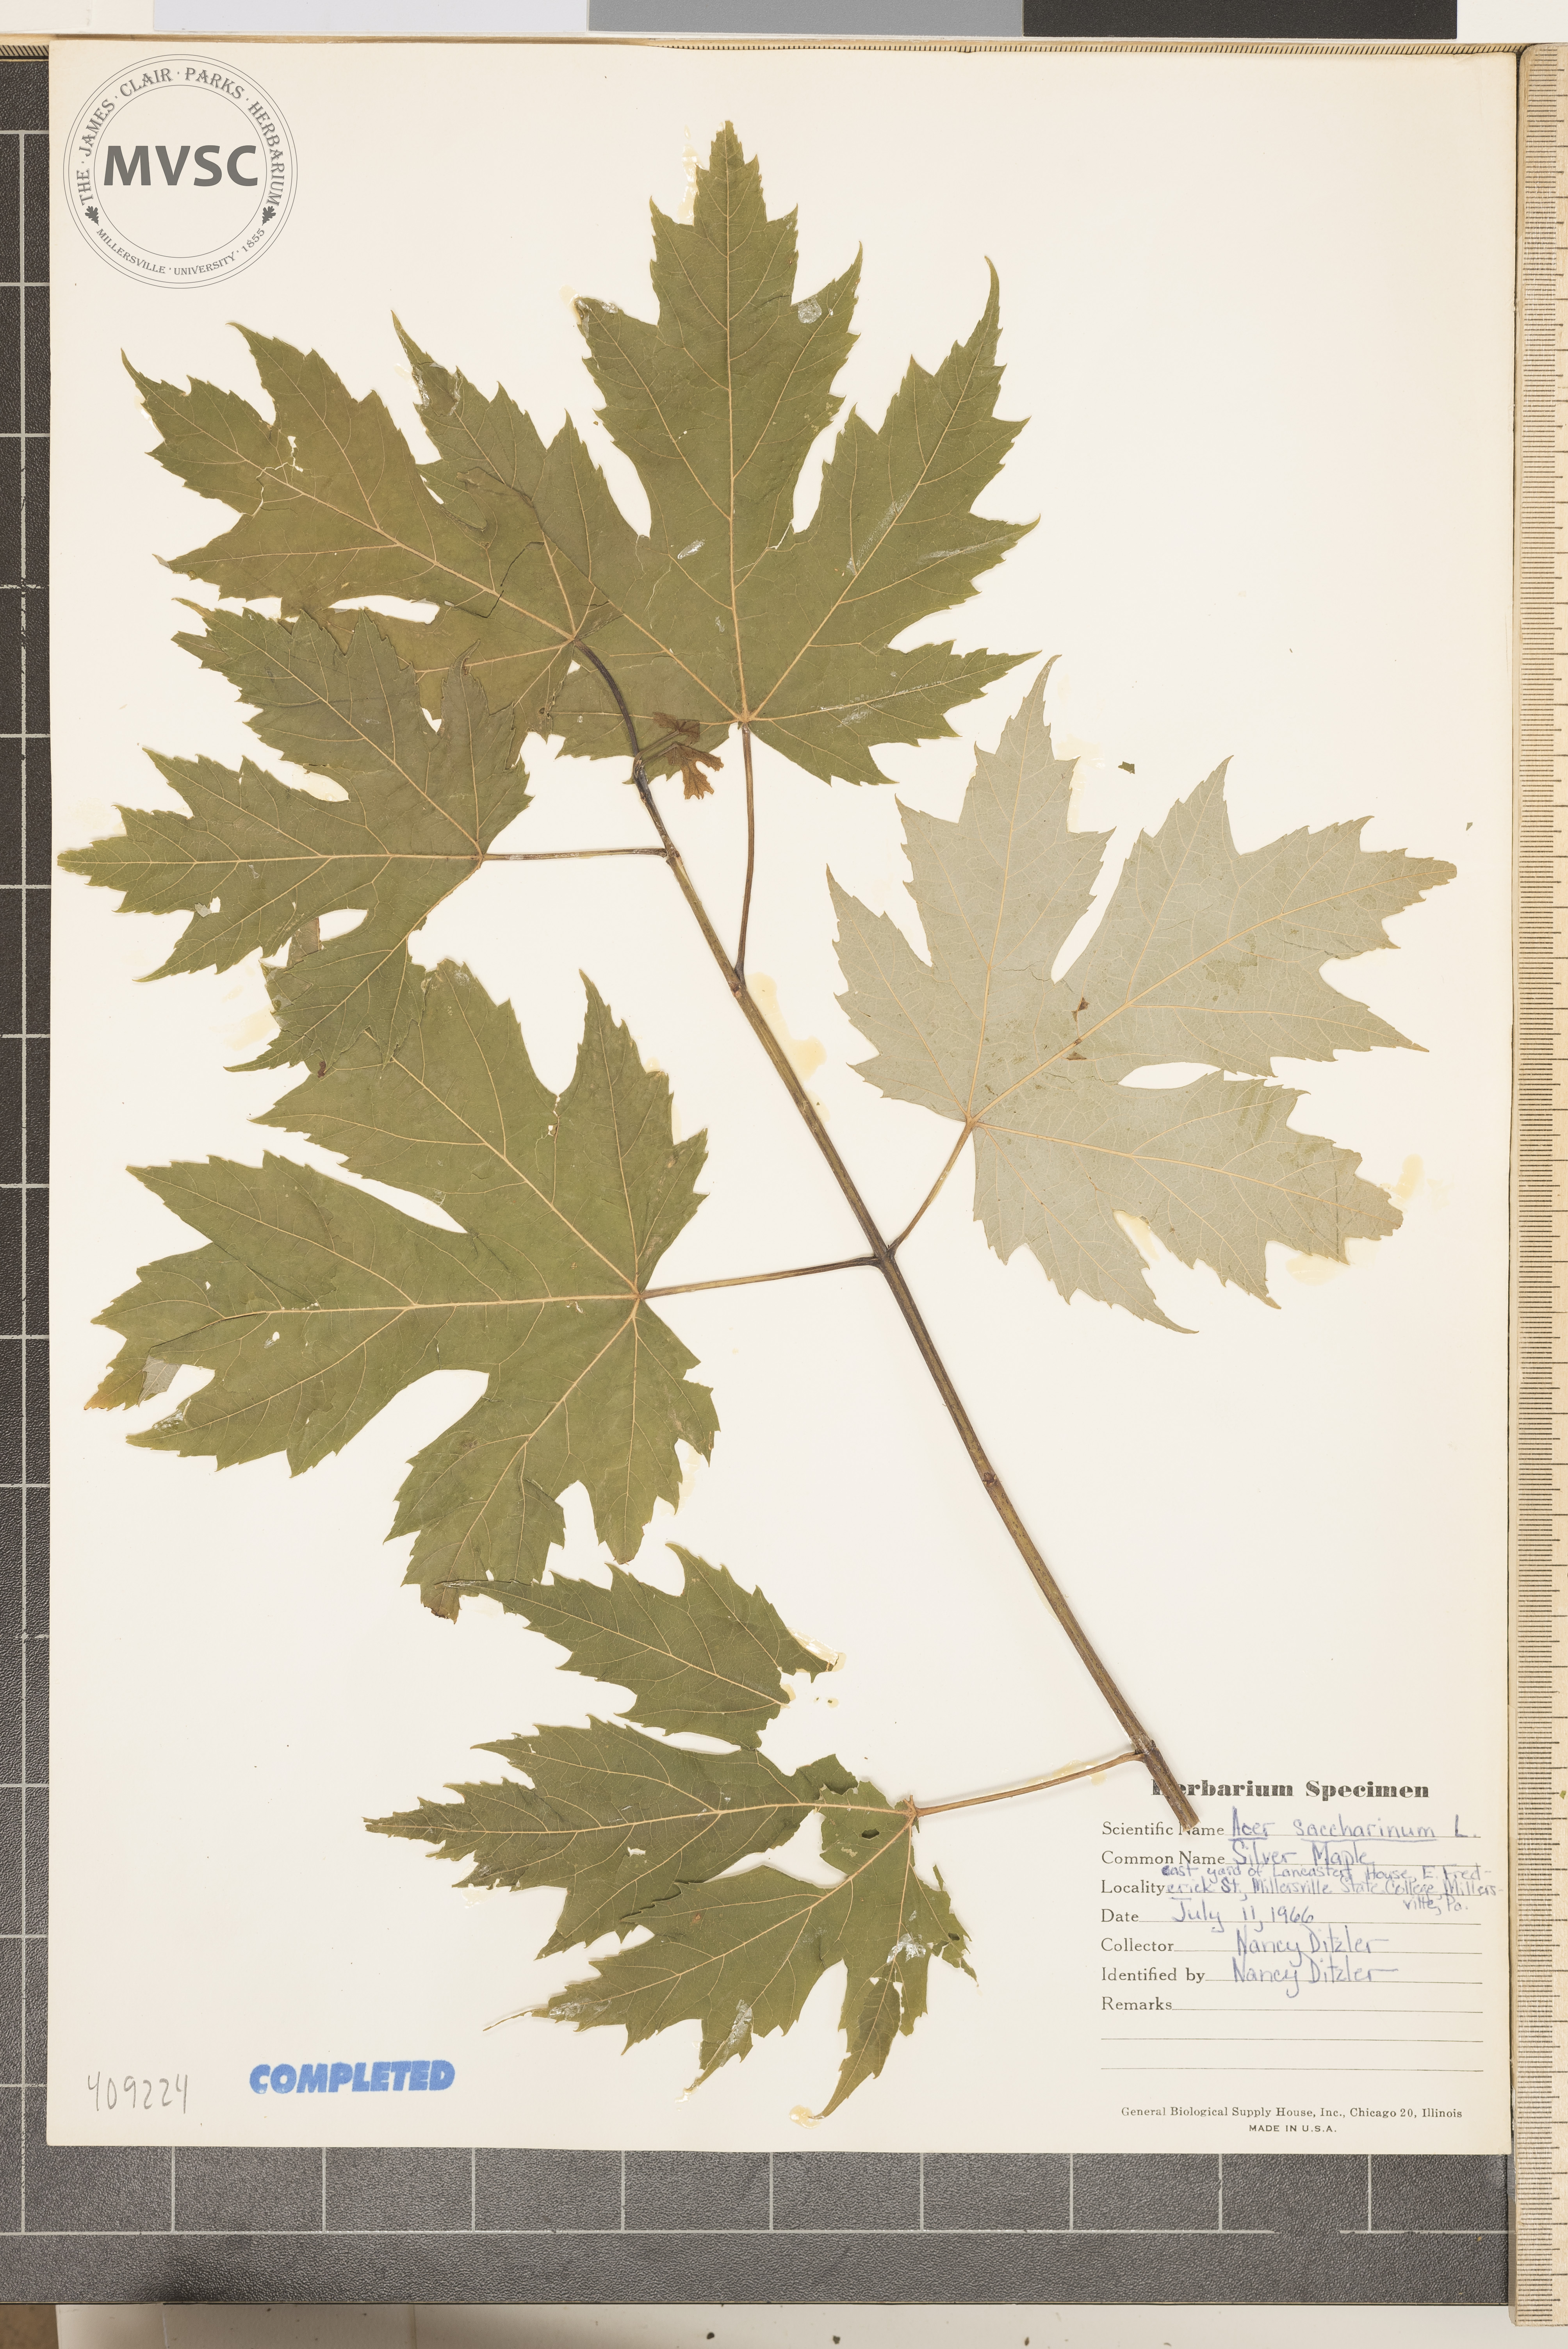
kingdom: Plantae
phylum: Tracheophyta
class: Magnoliopsida
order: Sapindales
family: Sapindaceae
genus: Acer
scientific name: Acer saccharinum
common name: Silver maple
